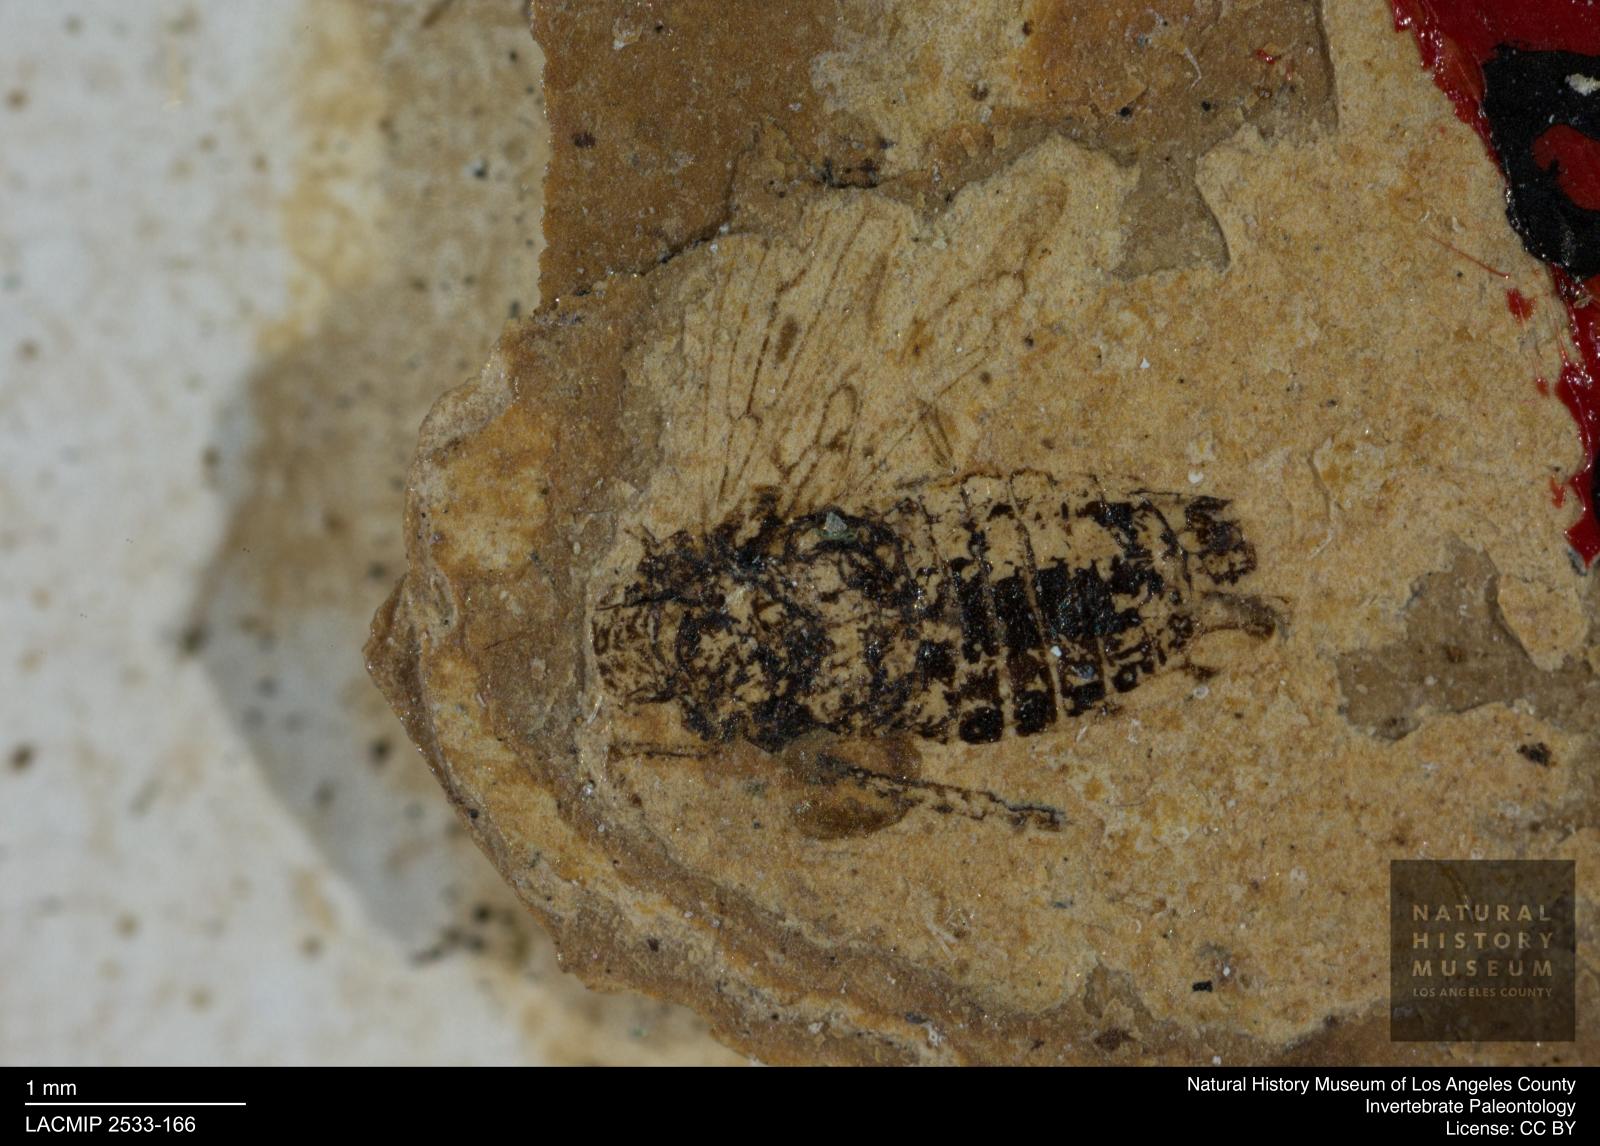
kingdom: Animalia
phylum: Arthropoda
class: Insecta
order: Hemiptera
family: Cicadellidae
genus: Deltocephalus
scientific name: Deltocephalus robustus
